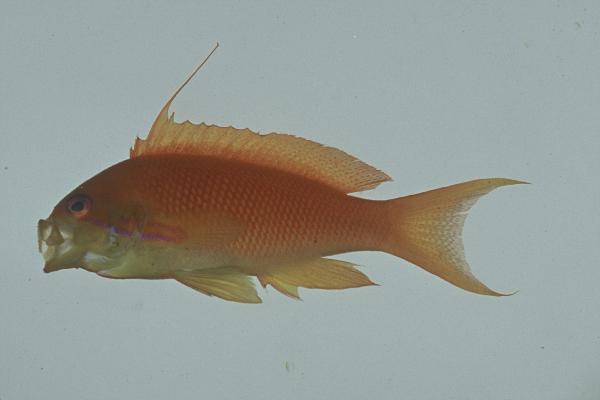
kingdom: Animalia
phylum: Chordata
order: Perciformes
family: Serranidae
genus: Pseudanthias
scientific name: Pseudanthias squamipinnis
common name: Scalefin anthias
